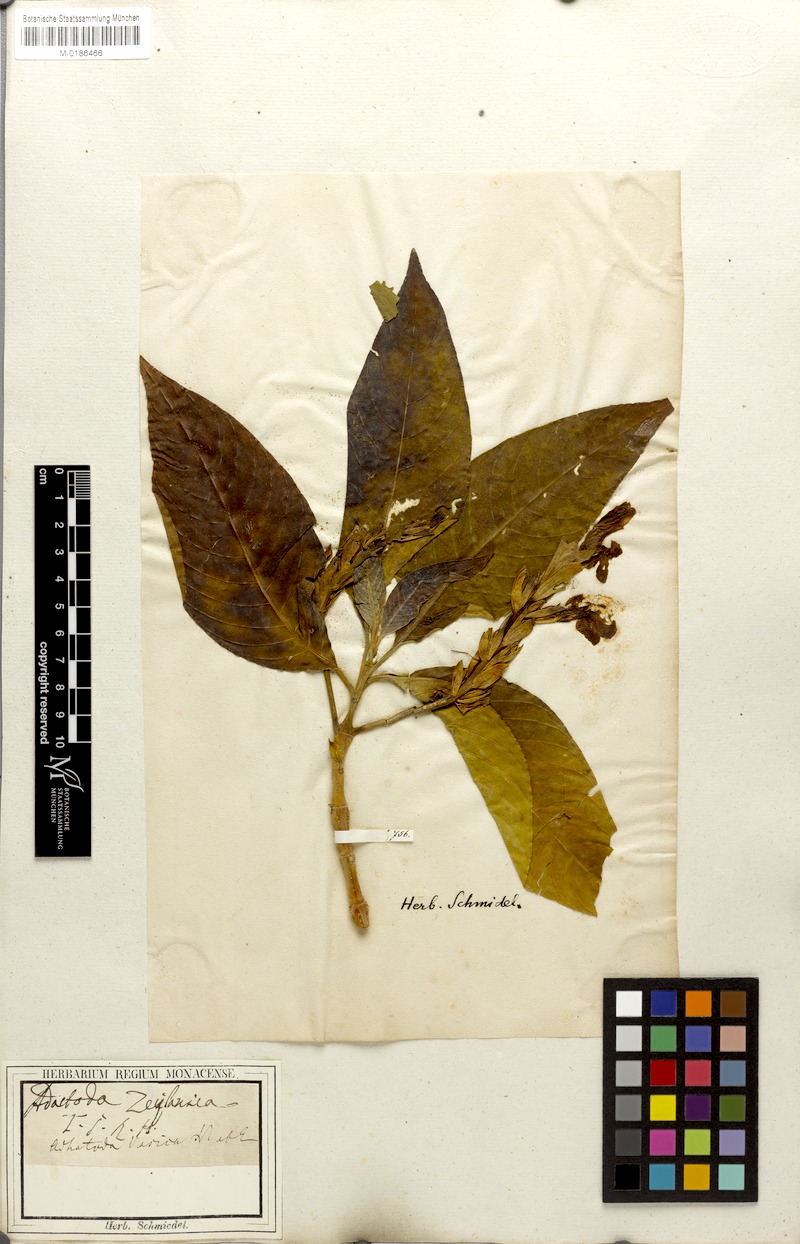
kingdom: Plantae
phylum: Tracheophyta
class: Magnoliopsida
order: Lamiales
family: Acanthaceae
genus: Justicia
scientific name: Justicia adhatoda
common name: Malabar nut
